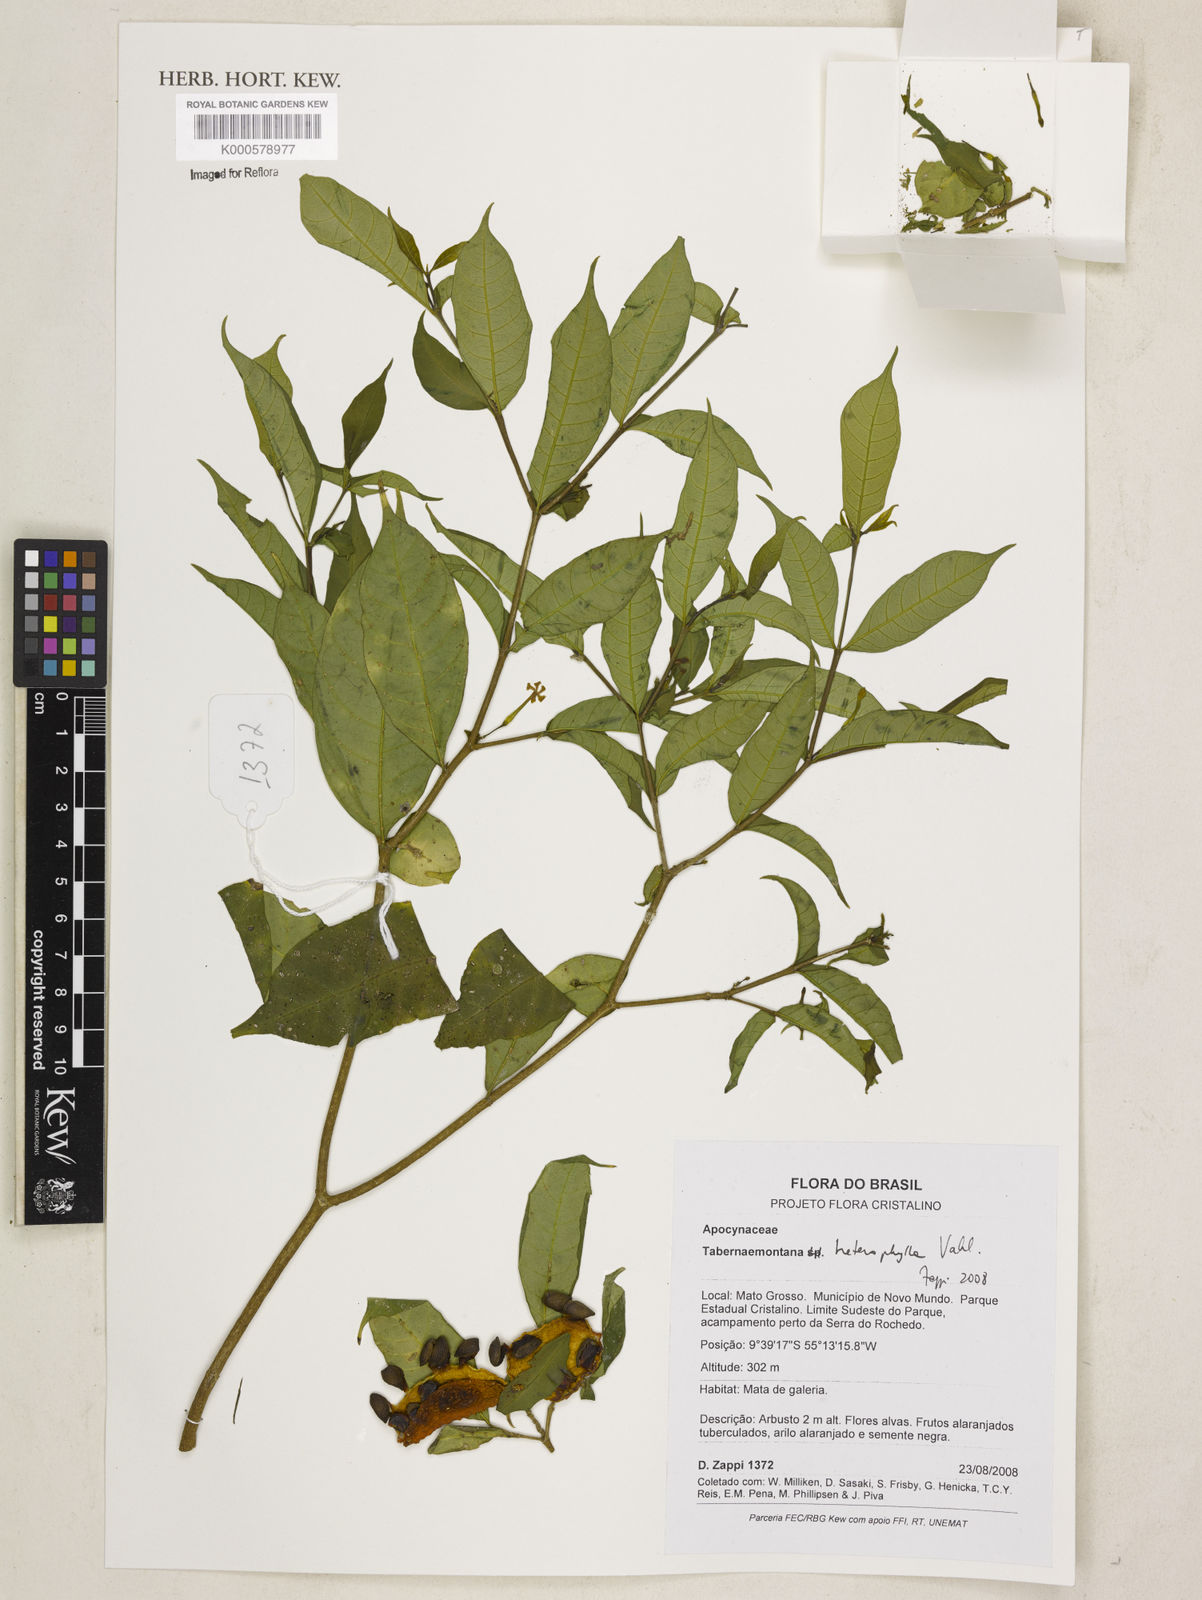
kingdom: Plantae
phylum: Tracheophyta
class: Magnoliopsida
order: Gentianales
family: Apocynaceae
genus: Tabernaemontana
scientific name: Tabernaemontana heterophylla
